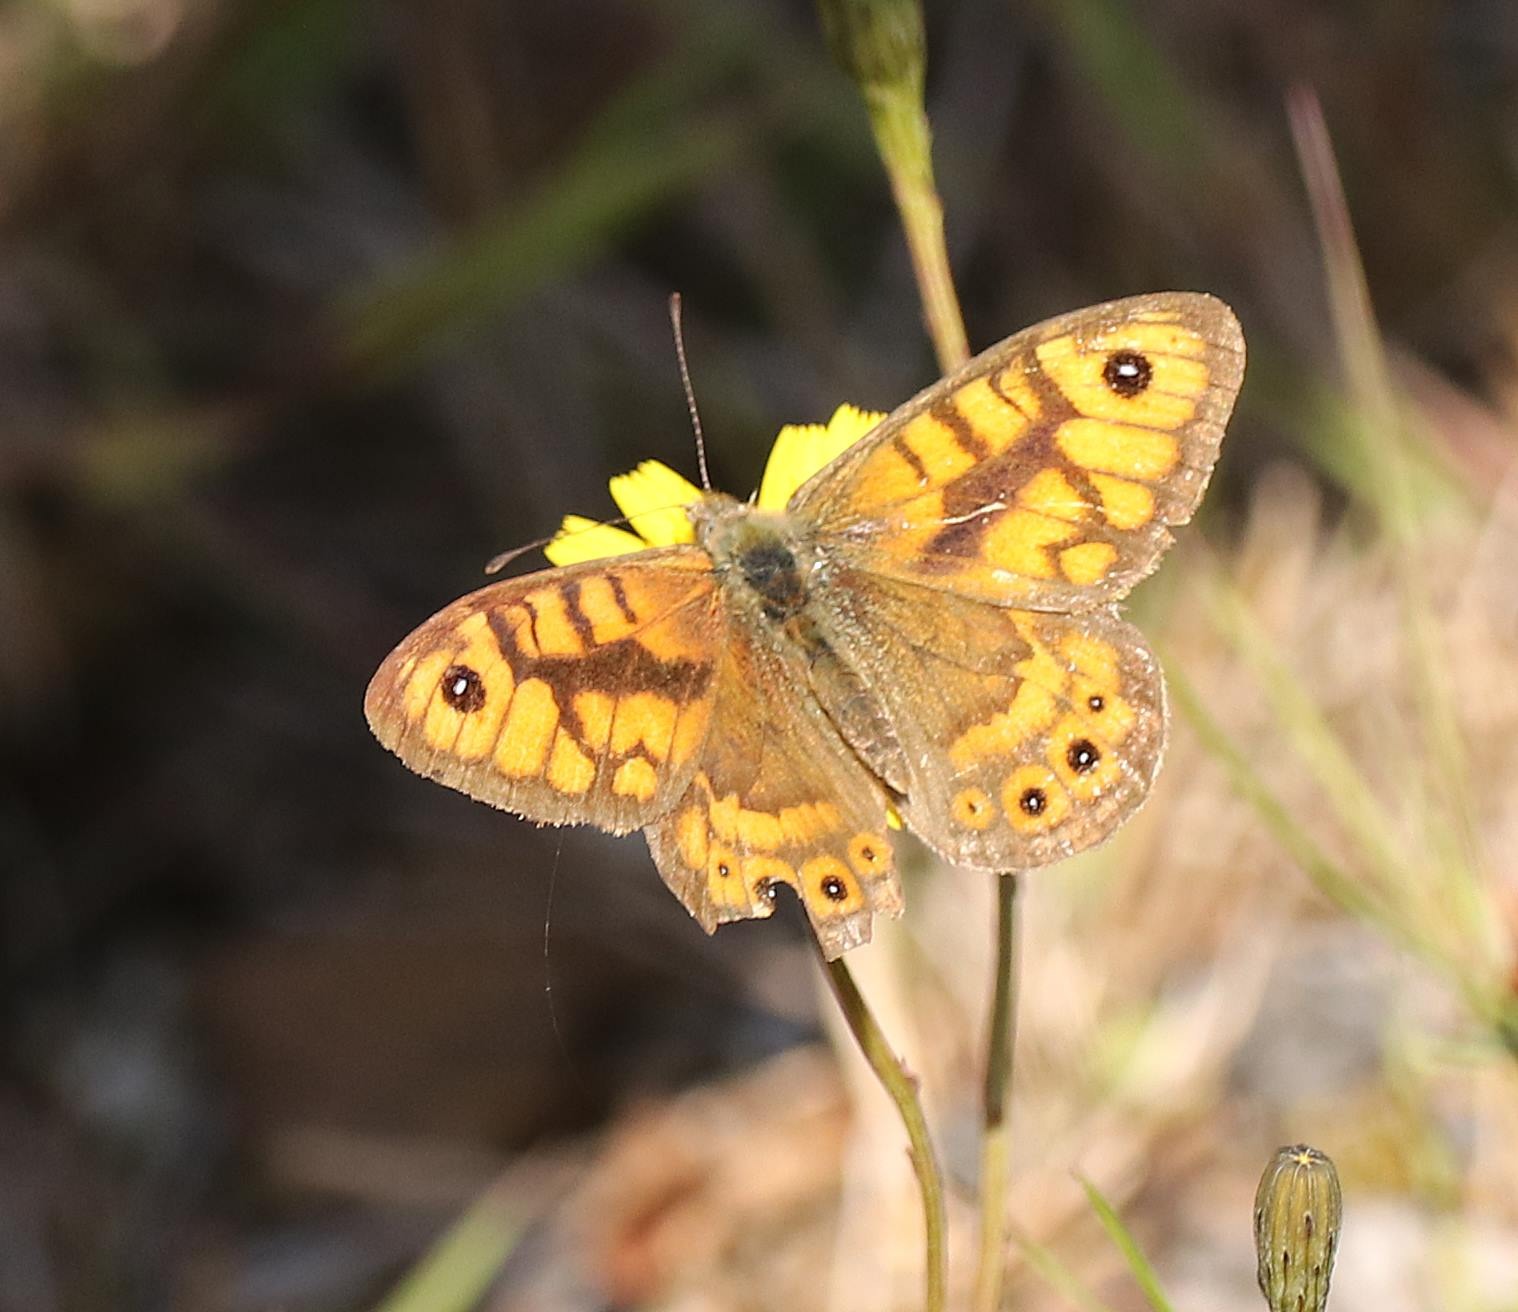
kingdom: Animalia
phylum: Arthropoda
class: Insecta
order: Lepidoptera
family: Nymphalidae
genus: Pararge
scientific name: Pararge Lasiommata megera
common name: Vejrandøje
